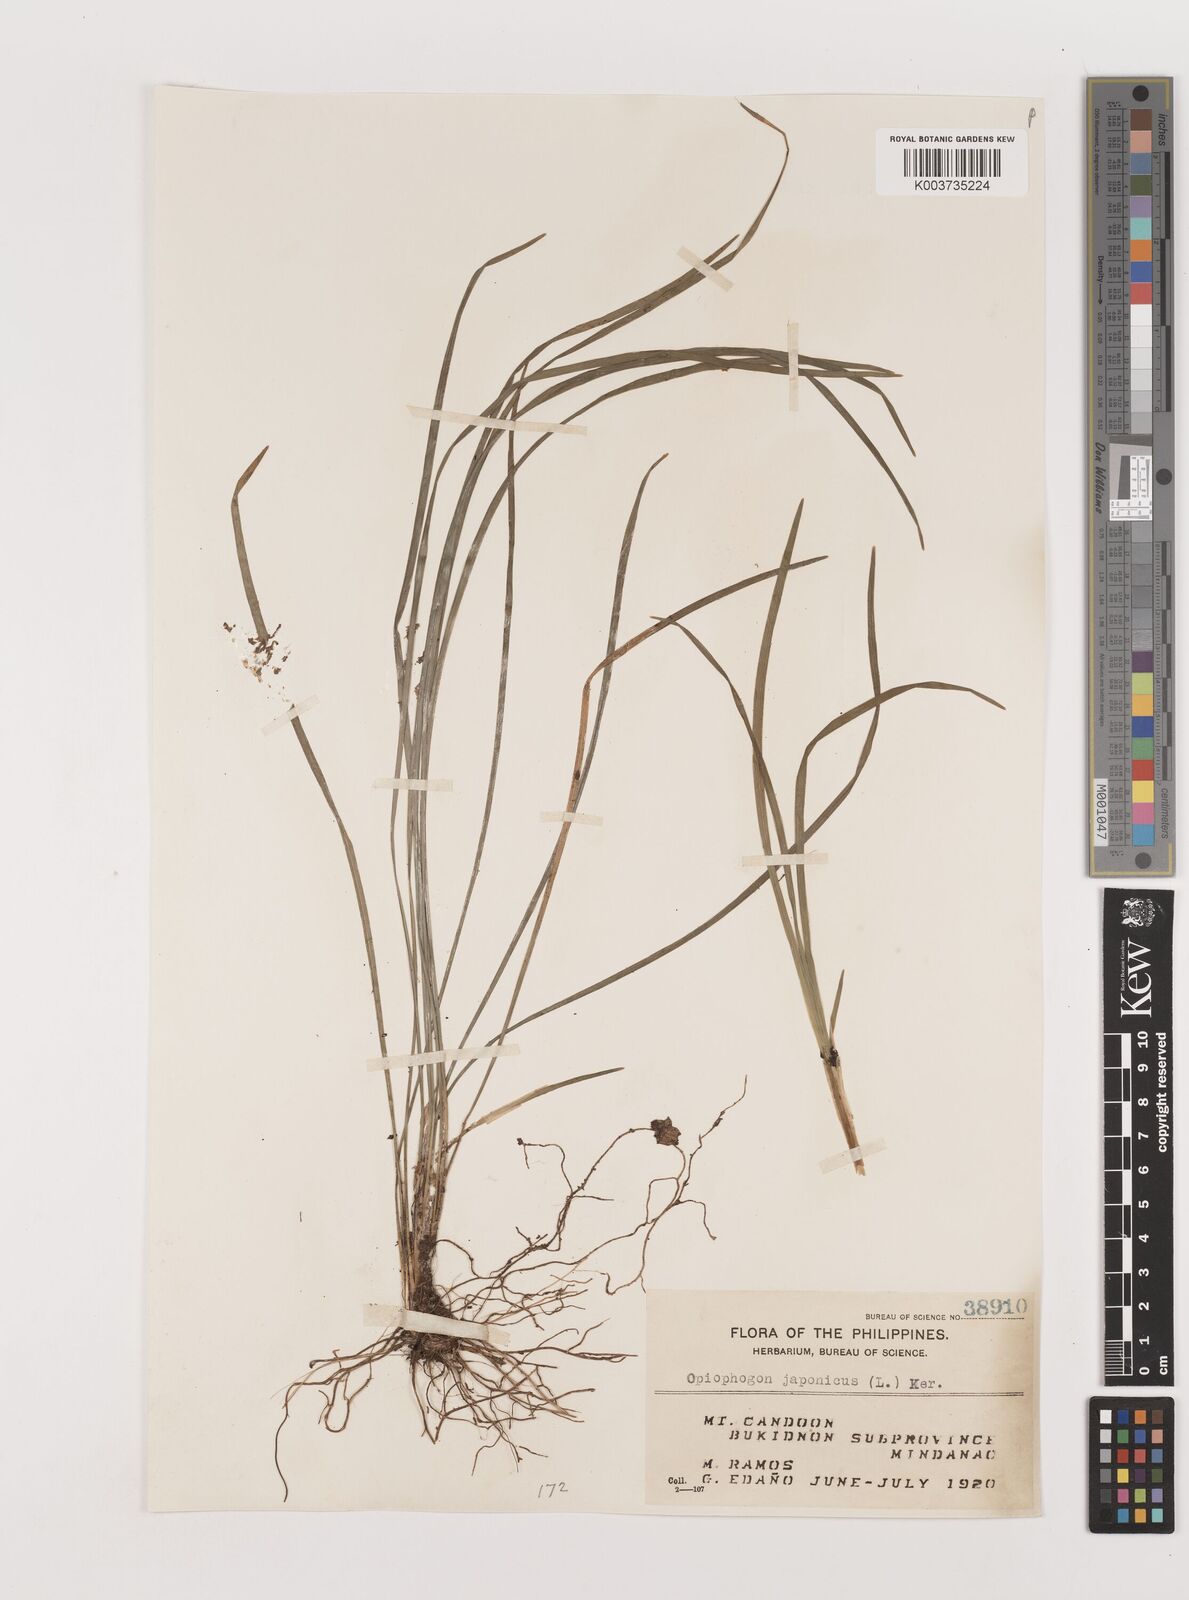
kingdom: Plantae
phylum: Tracheophyta
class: Liliopsida
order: Asparagales
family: Asparagaceae
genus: Ophiopogon
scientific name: Ophiopogon japonicus
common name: Dwarf lilyturf
